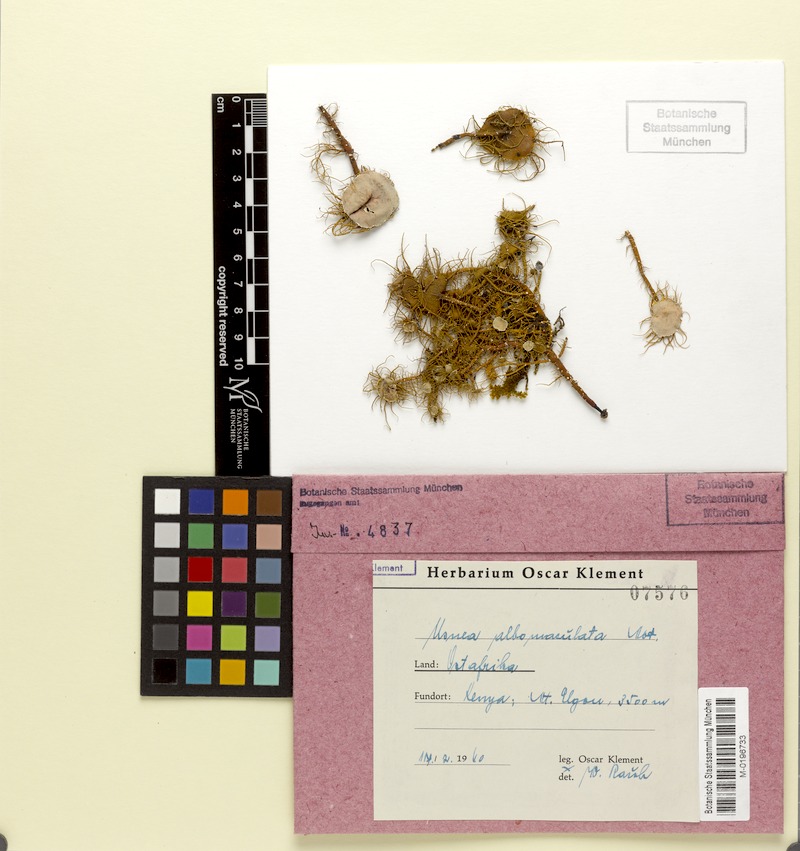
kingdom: Fungi
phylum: Ascomycota
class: Lecanoromycetes
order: Lecanorales
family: Parmeliaceae
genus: Usnea
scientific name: Usnea albomaculata
